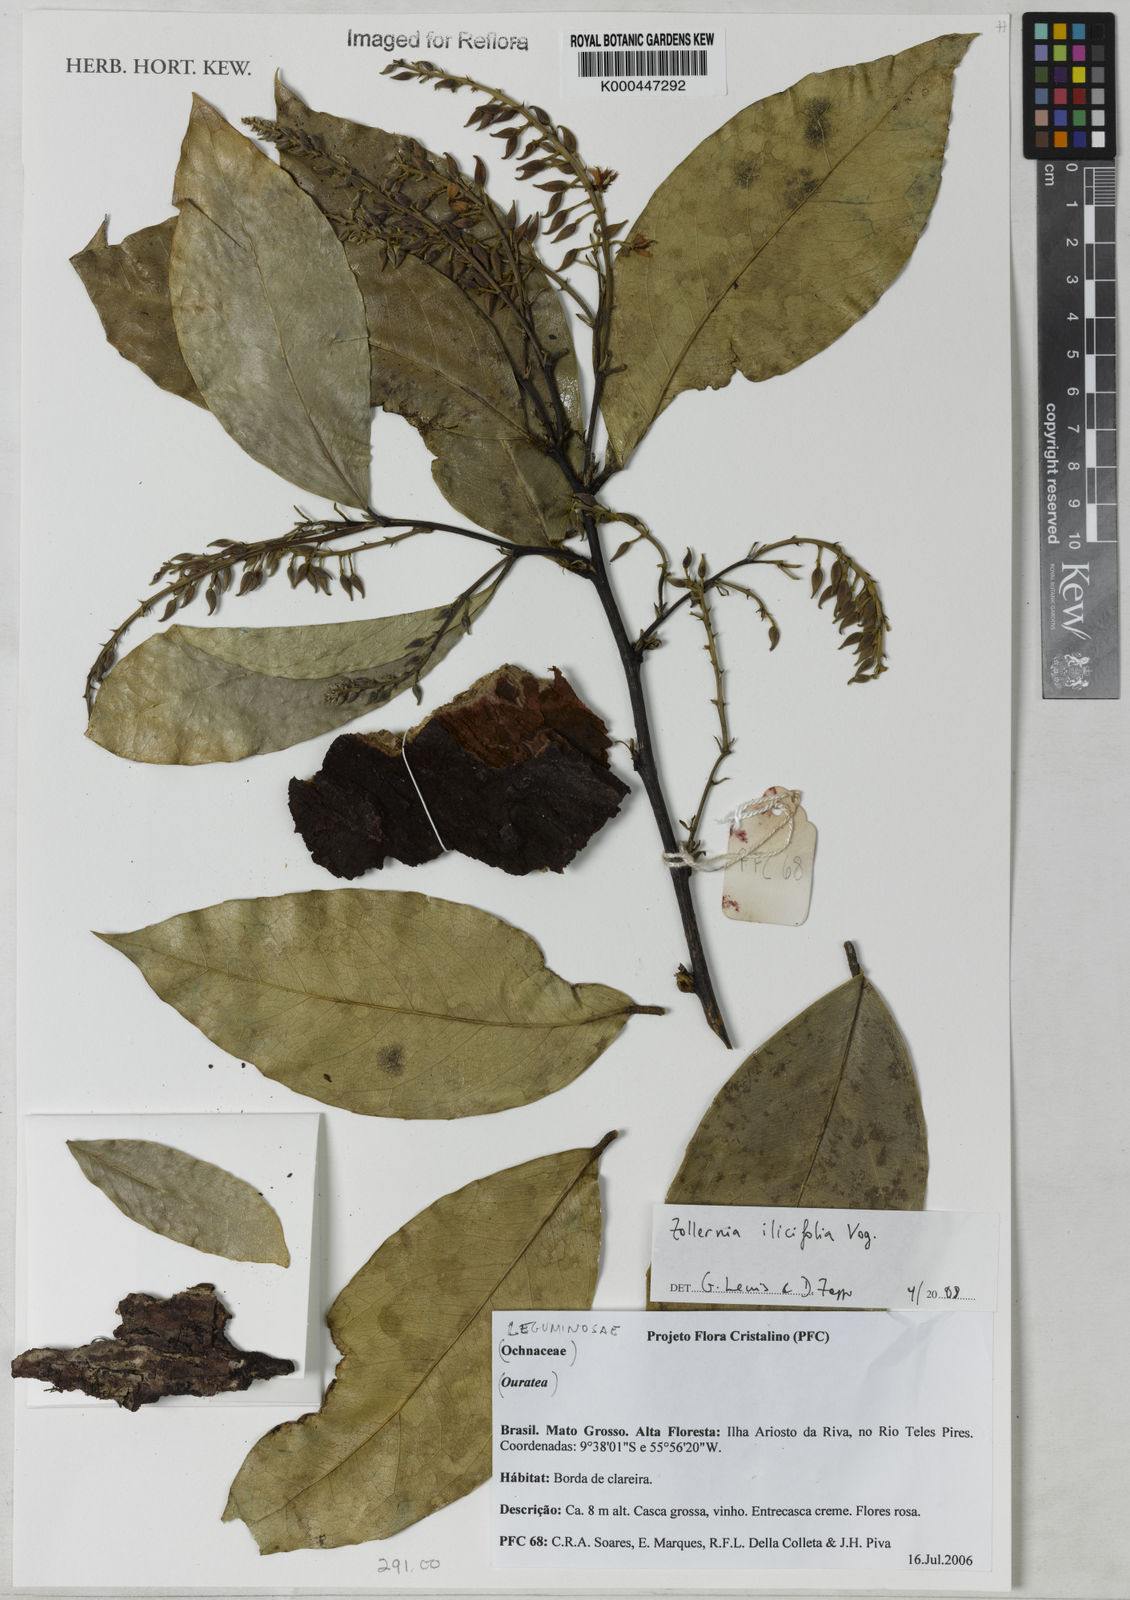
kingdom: Plantae
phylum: Tracheophyta
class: Magnoliopsida
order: Fabales
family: Fabaceae
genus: Zollernia
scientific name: Zollernia ilicifolia
